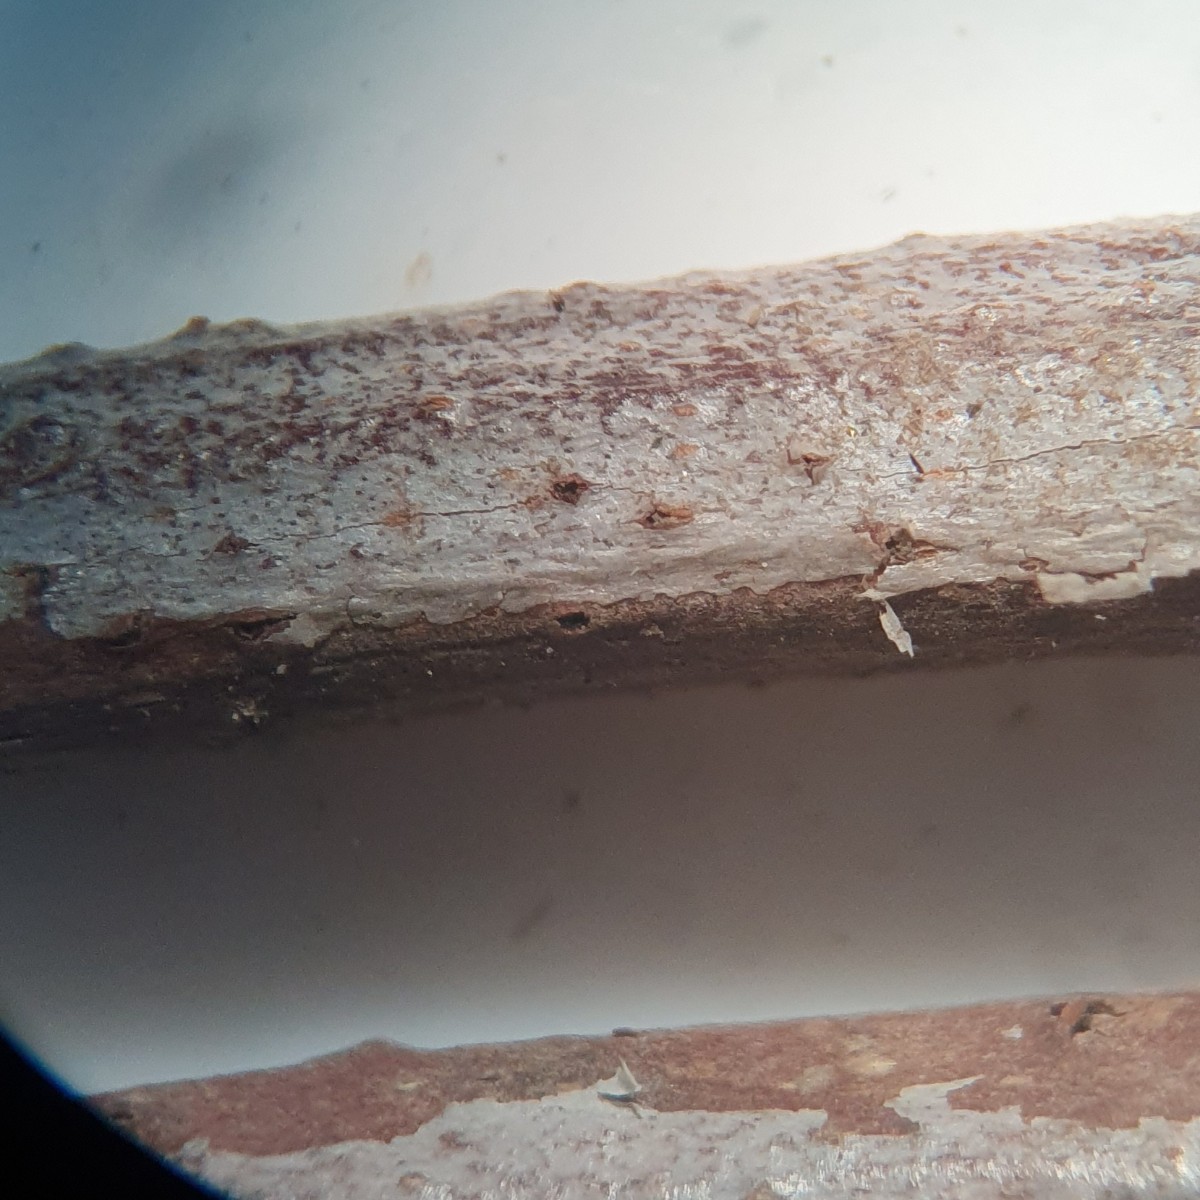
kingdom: Fungi
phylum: Ascomycota
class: Dothideomycetes
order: Botryosphaeriales
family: Botryosphaeriaceae
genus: Diplodia
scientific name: Diplodia platanicola
